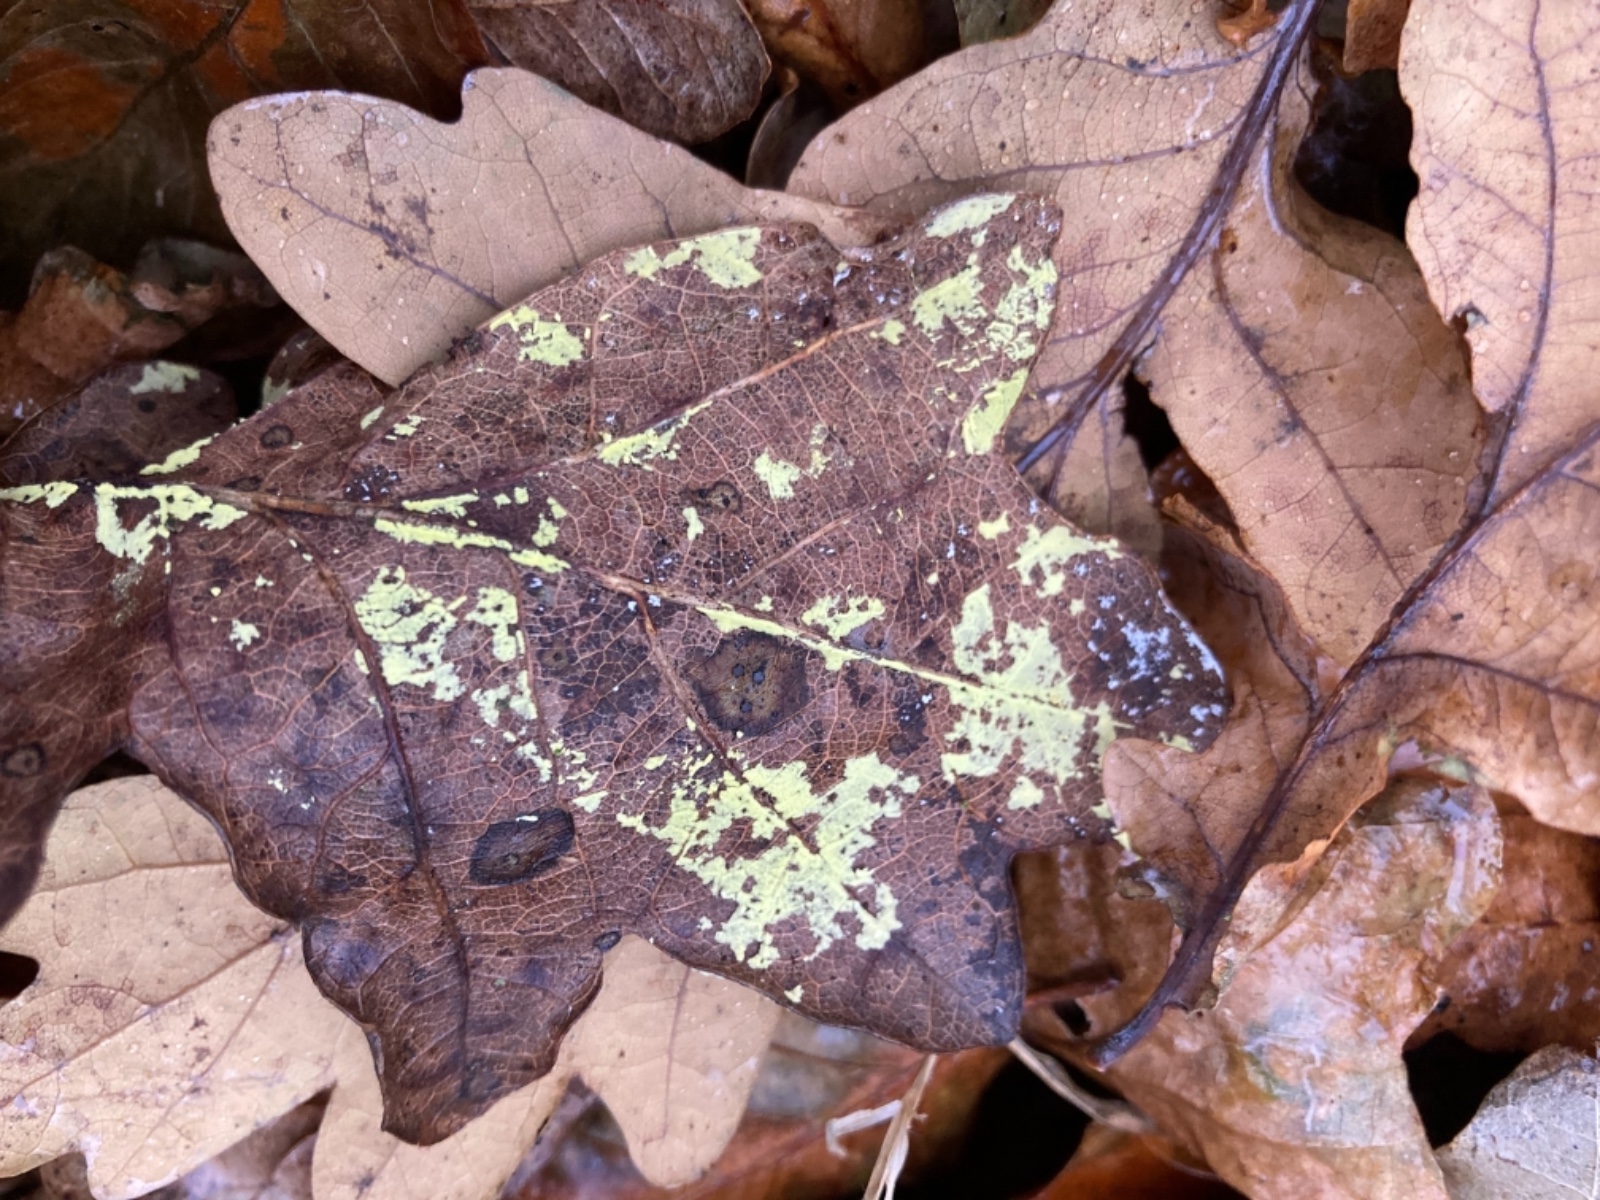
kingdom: Fungi
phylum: Ascomycota
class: Sordariomycetes
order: Hypocreales
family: Cylindriaceae
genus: Cylindrium
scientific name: Cylindrium aeruginosum
